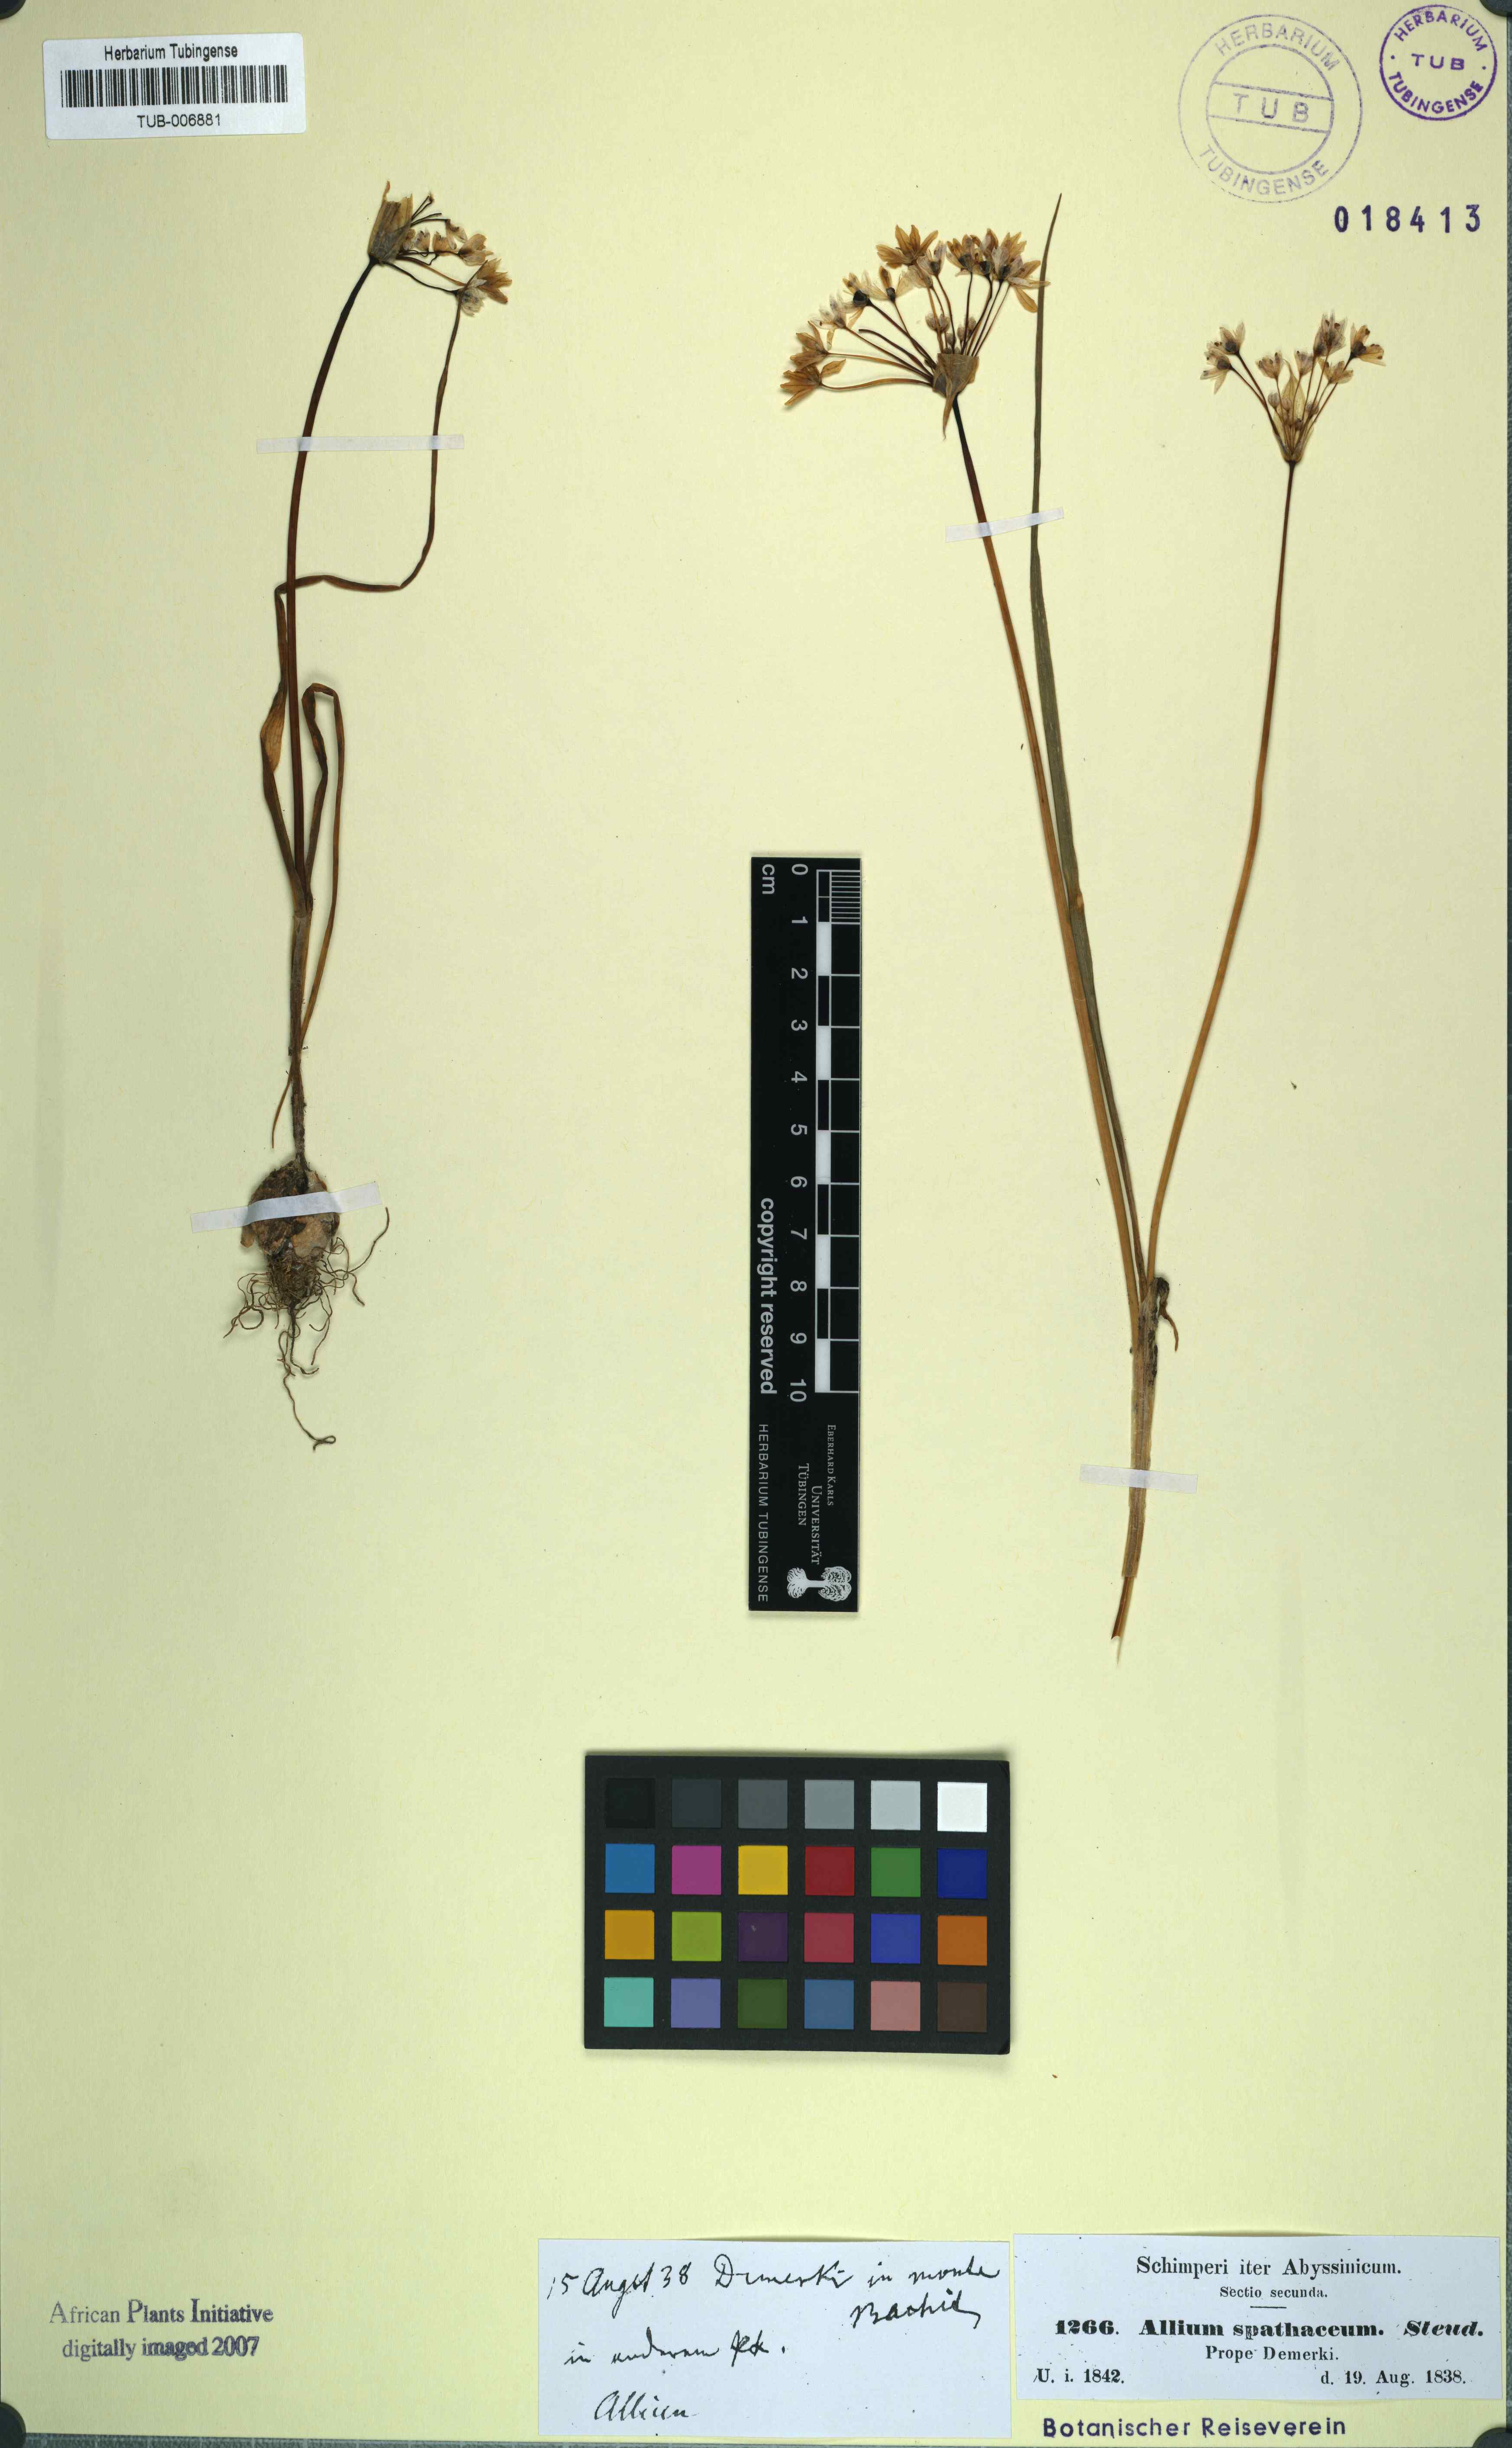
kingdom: Plantae
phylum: Tracheophyta
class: Liliopsida
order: Asparagales
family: Amaryllidaceae
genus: Allium
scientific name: Allium subhirsutum
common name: Hairy garlic
